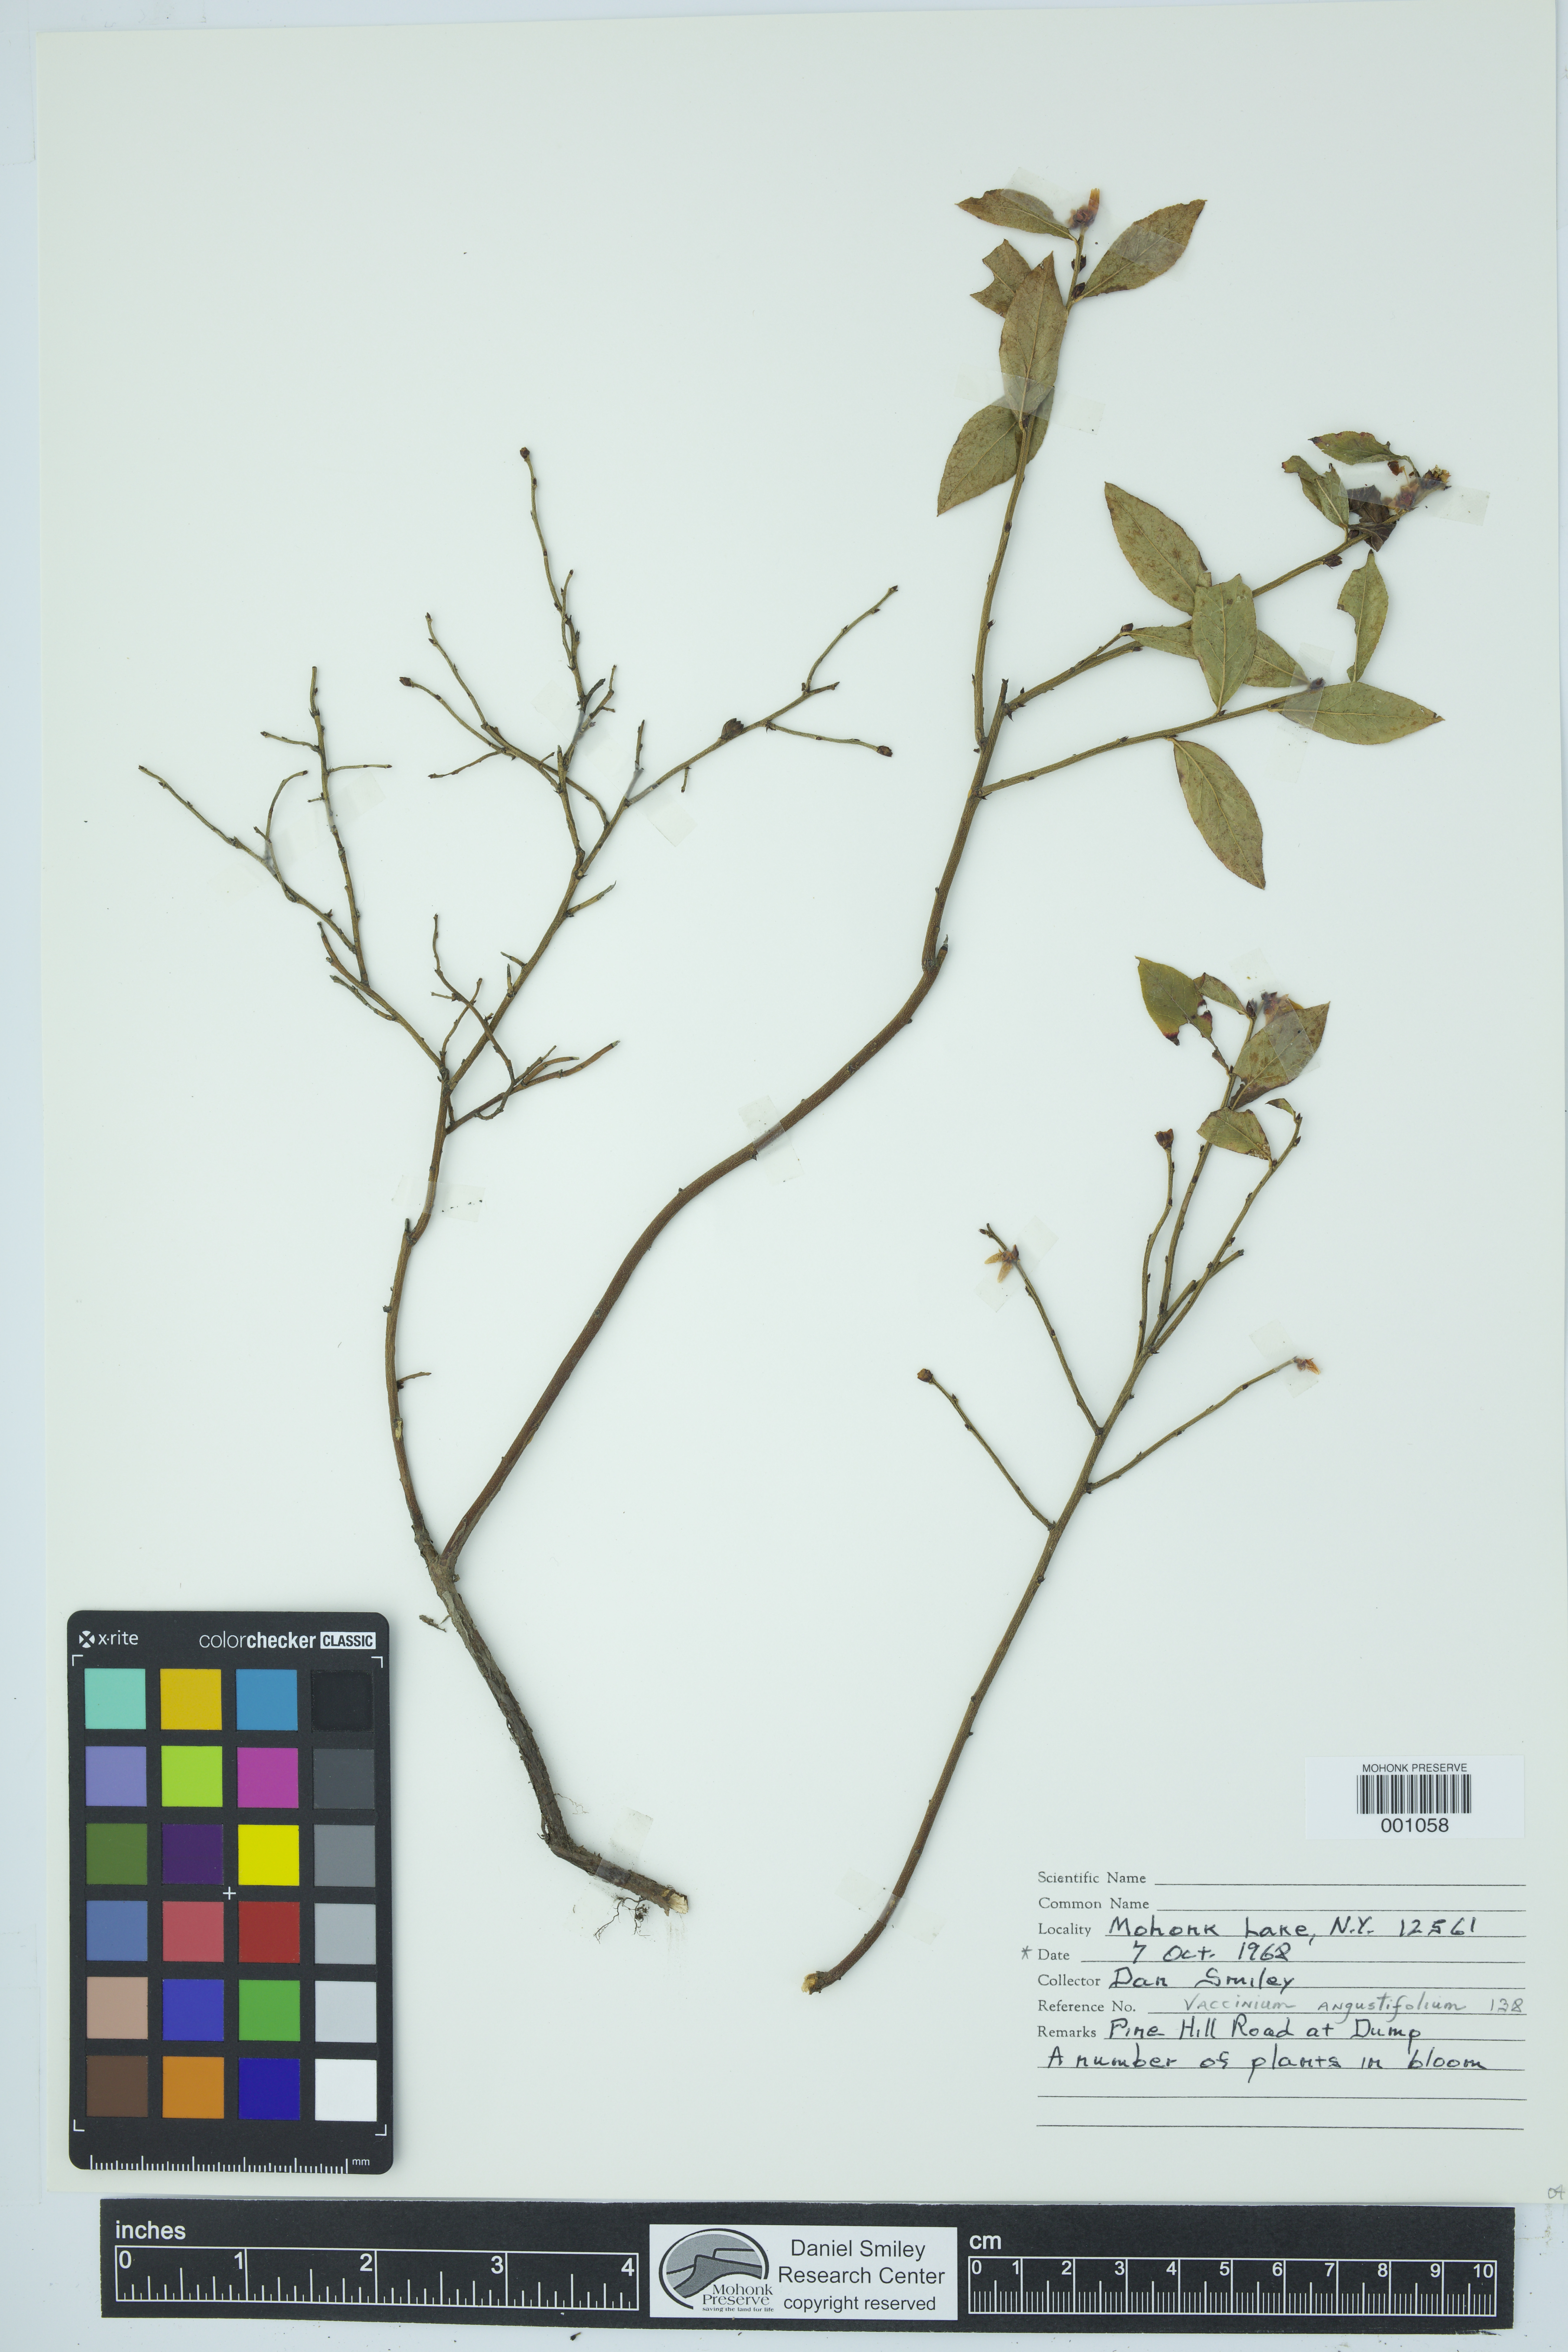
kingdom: Plantae
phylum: Tracheophyta
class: Magnoliopsida
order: Ericales
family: Ericaceae
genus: Vaccinium
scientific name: Vaccinium angustifolium
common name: Early lowbush blueberry
